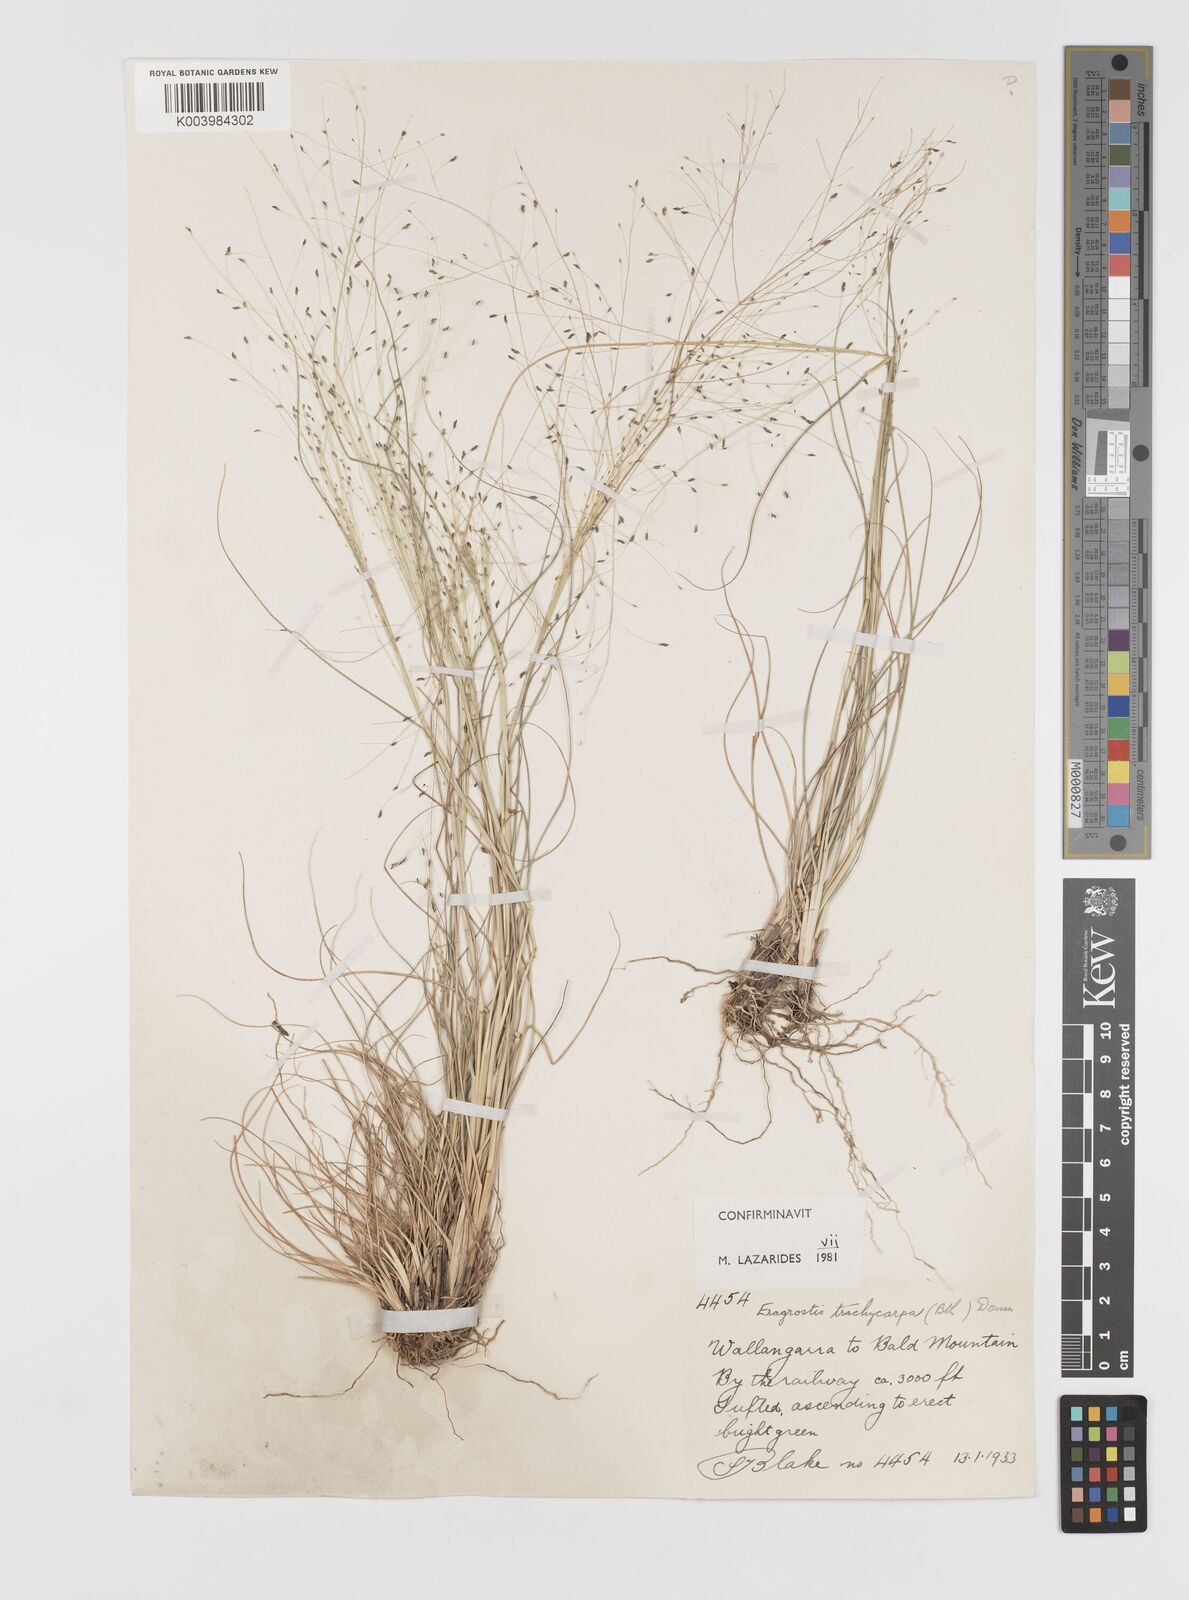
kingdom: Plantae
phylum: Tracheophyta
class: Liliopsida
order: Poales
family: Poaceae
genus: Eragrostis
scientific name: Eragrostis trachycarpa
